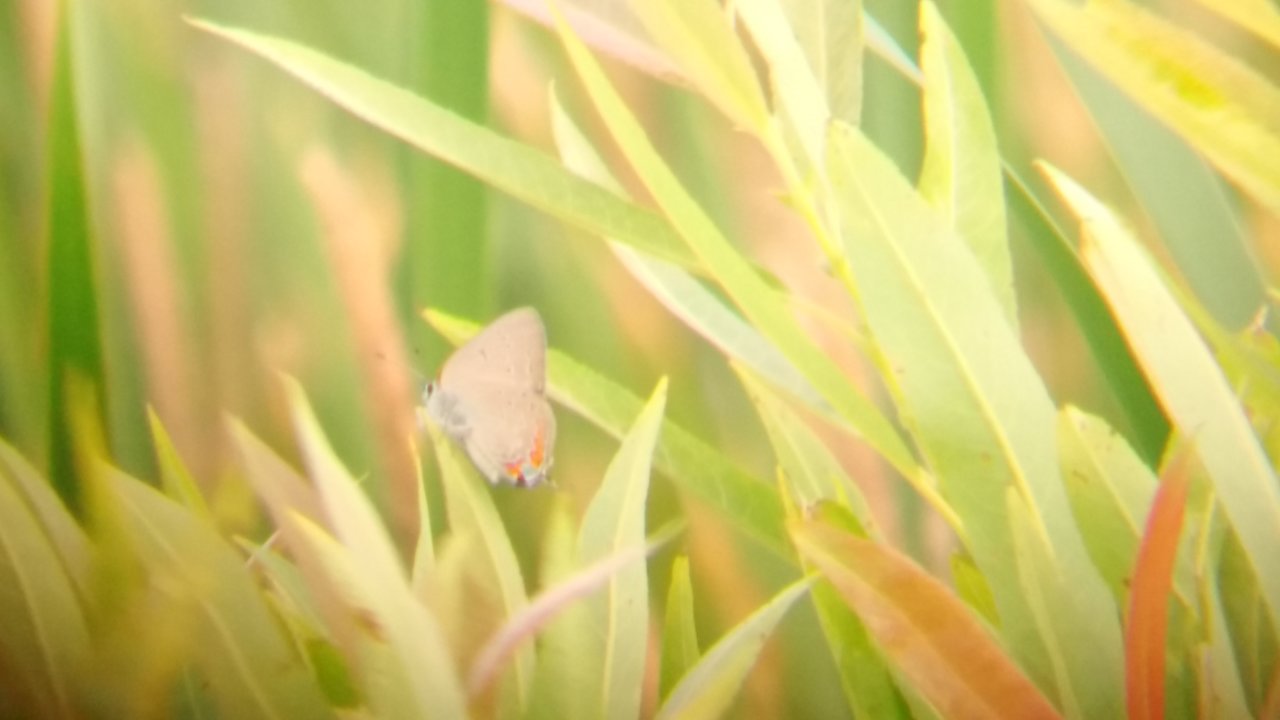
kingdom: Animalia
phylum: Arthropoda
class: Insecta
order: Lepidoptera
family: Lycaenidae
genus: Strymon
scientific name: Strymon acadica
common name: Acadian Hairstreak
